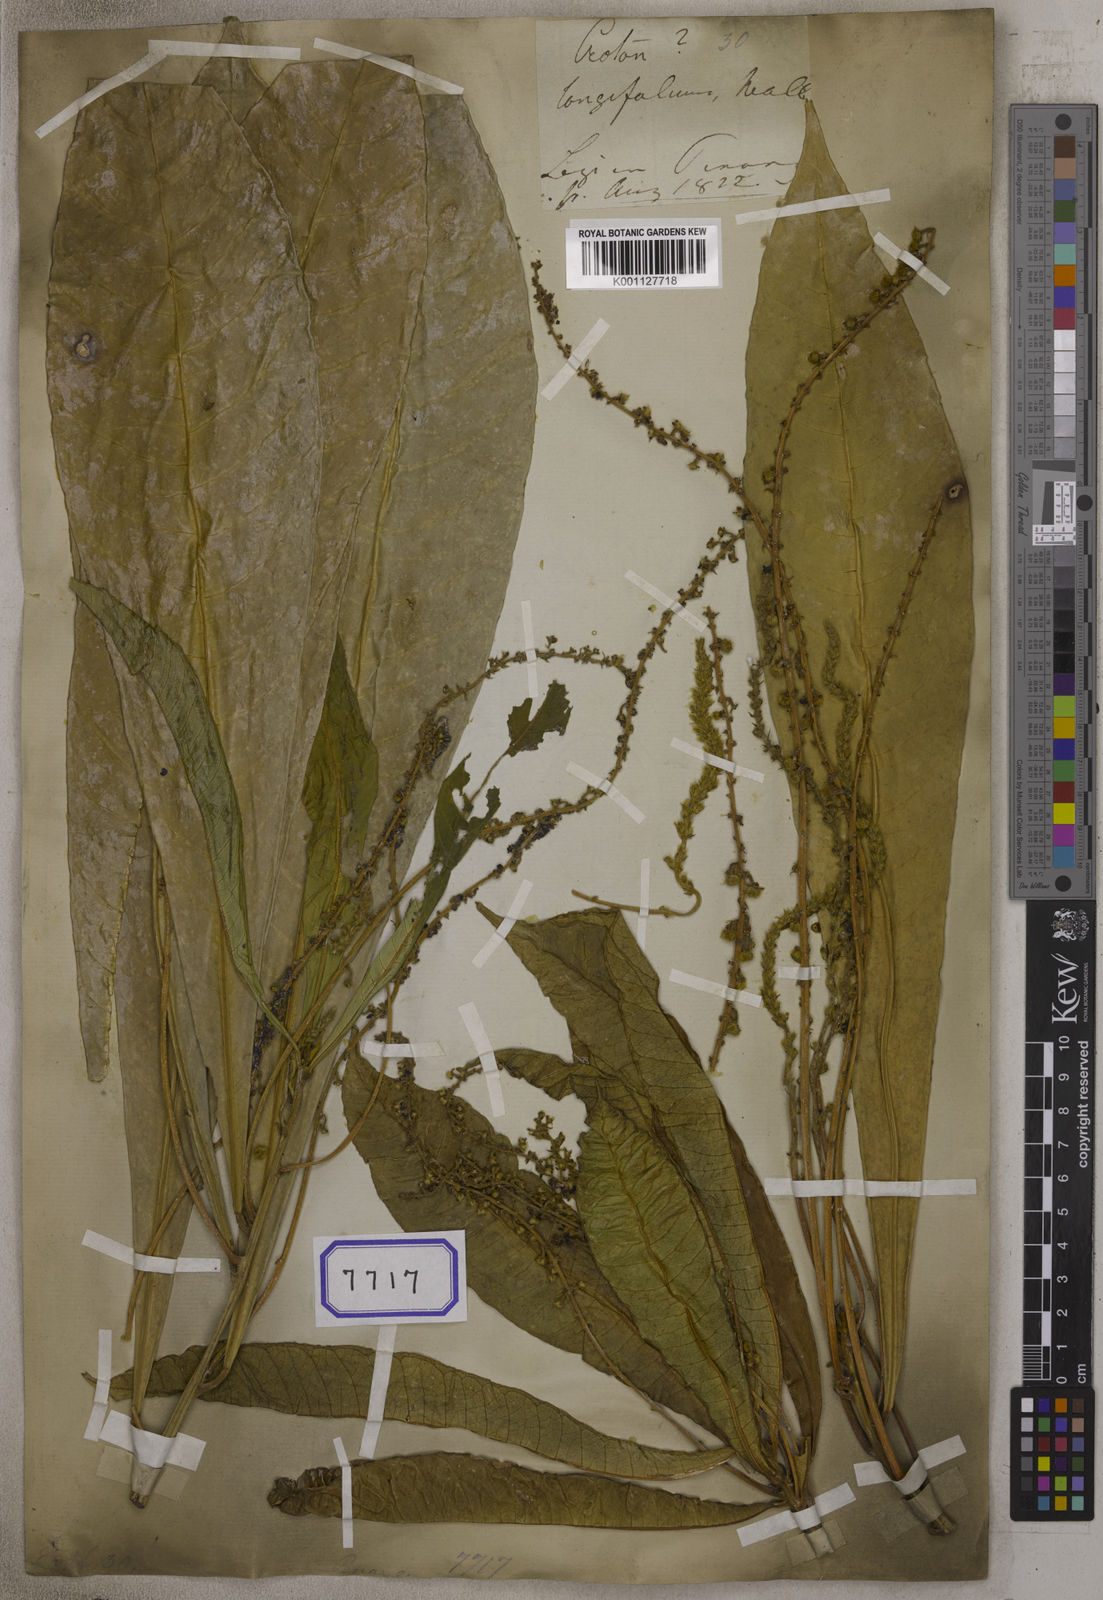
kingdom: Plantae
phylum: Tracheophyta
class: Magnoliopsida
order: Malpighiales
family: Euphorbiaceae
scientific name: Euphorbiaceae
